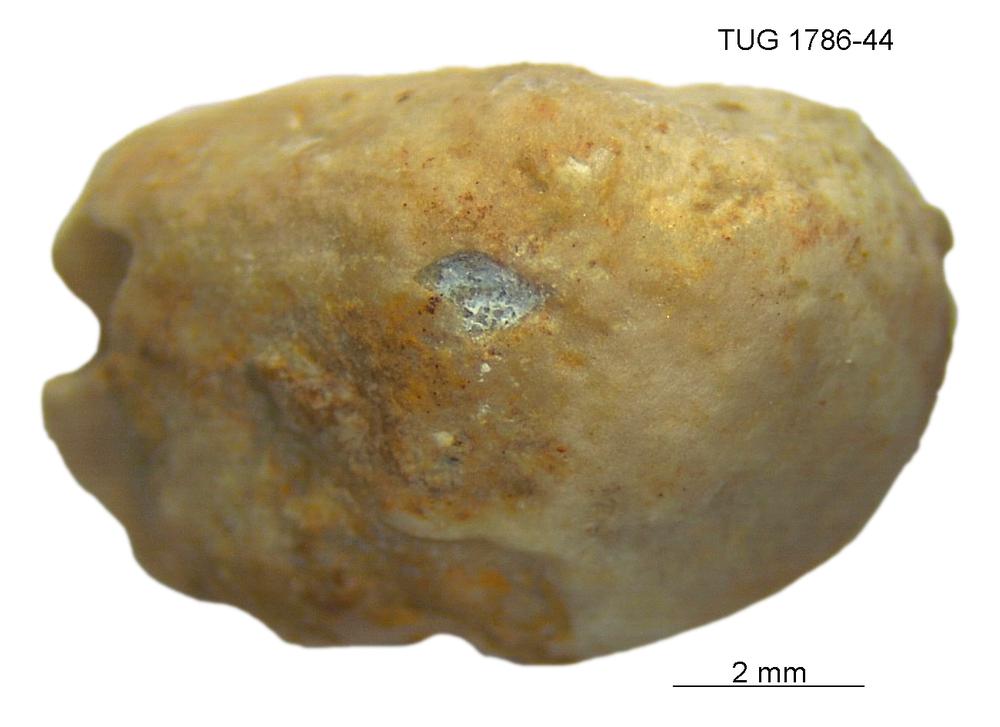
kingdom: Animalia
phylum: Porifera
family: Chaetetidae
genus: Solenopora
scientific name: Solenopora
